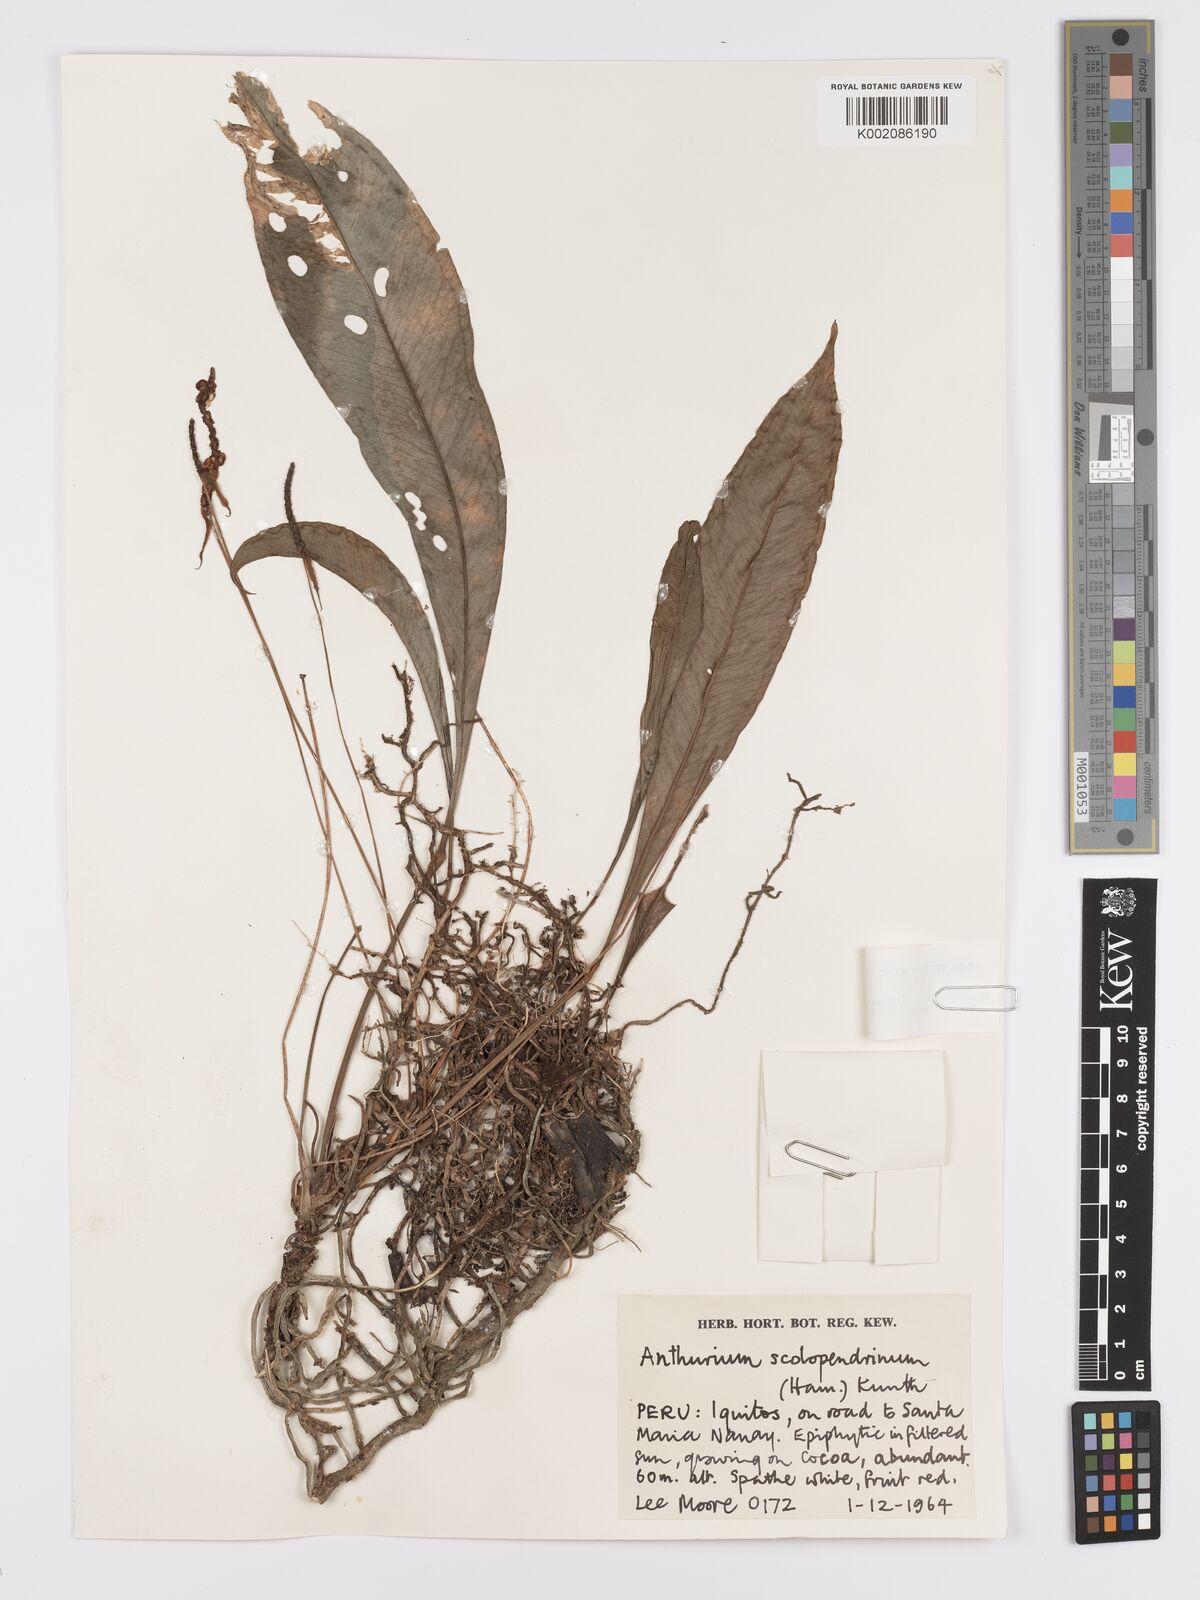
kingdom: Plantae
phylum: Tracheophyta
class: Liliopsida
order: Alismatales
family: Araceae
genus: Anthurium
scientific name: Anthurium gracile
